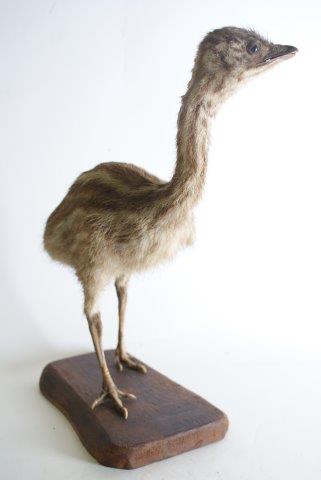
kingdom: Animalia
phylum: Chordata
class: Aves
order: Rheiformes
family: Rheidae
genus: Rhea
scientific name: Rhea americana
